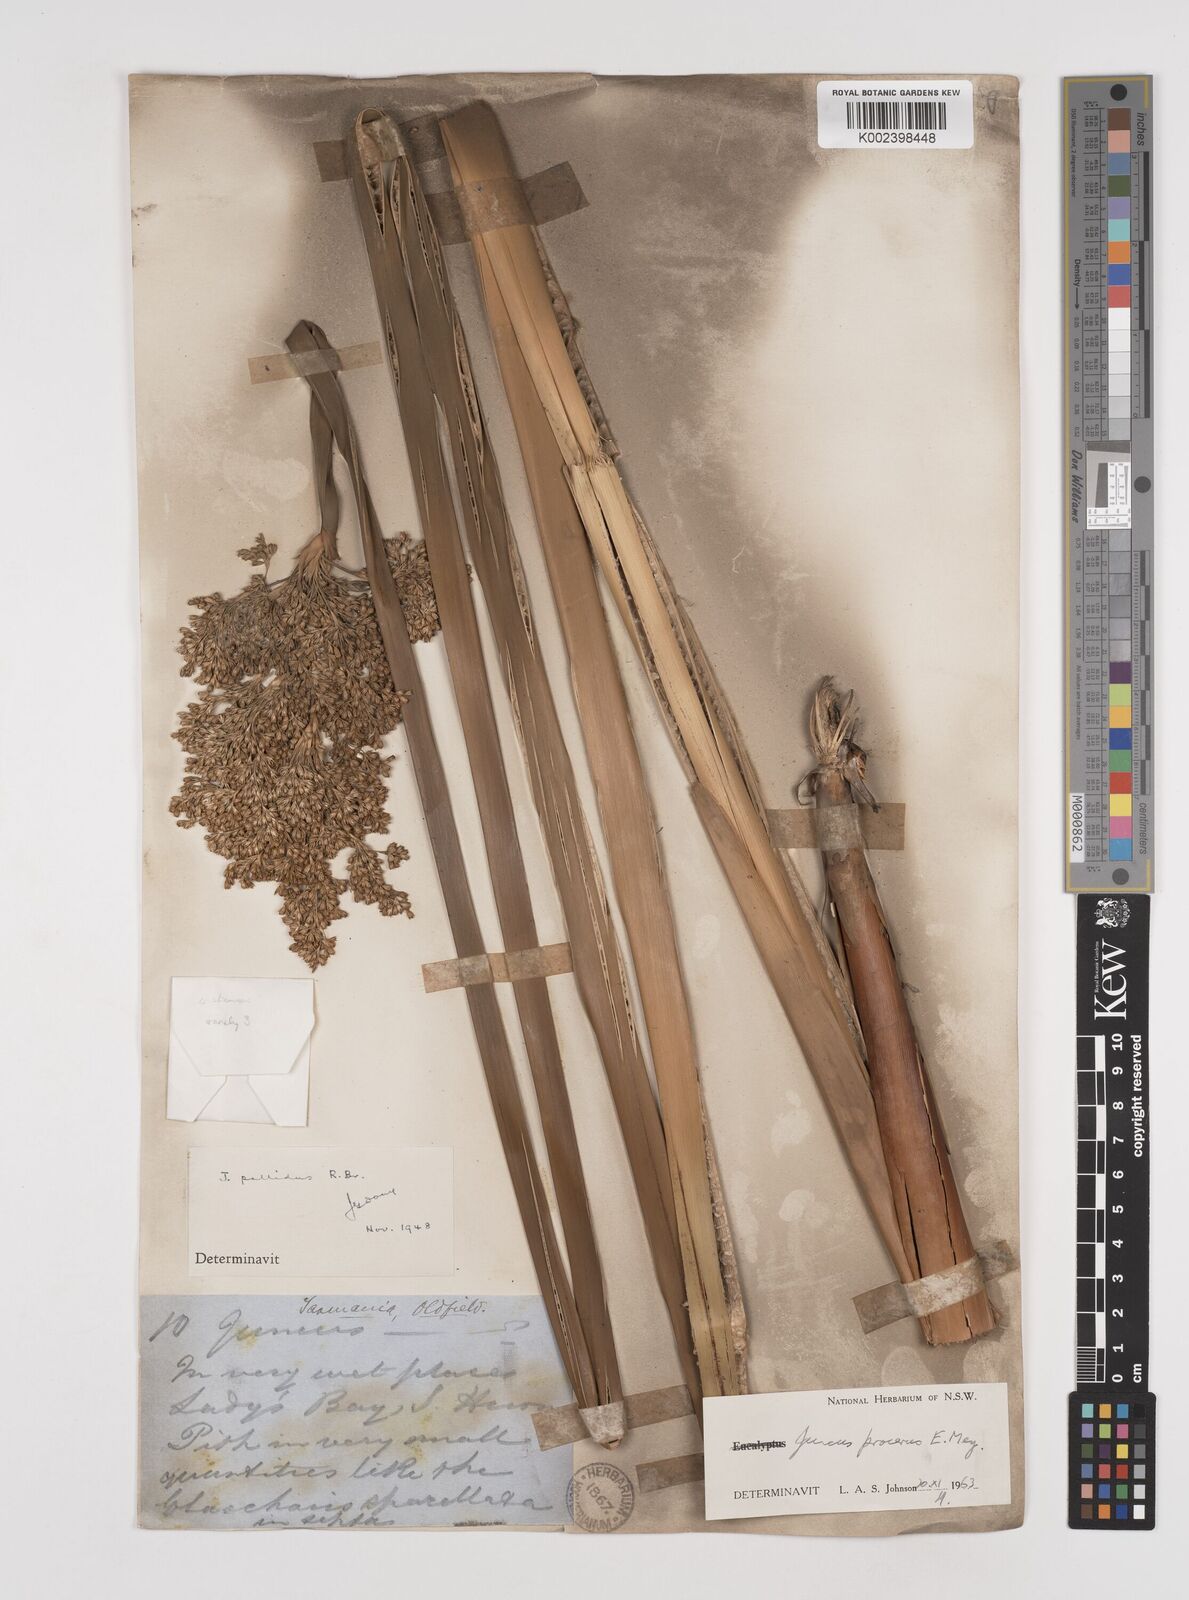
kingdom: Plantae
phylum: Tracheophyta
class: Liliopsida
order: Poales
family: Juncaceae
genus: Juncus
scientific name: Juncus procerus
